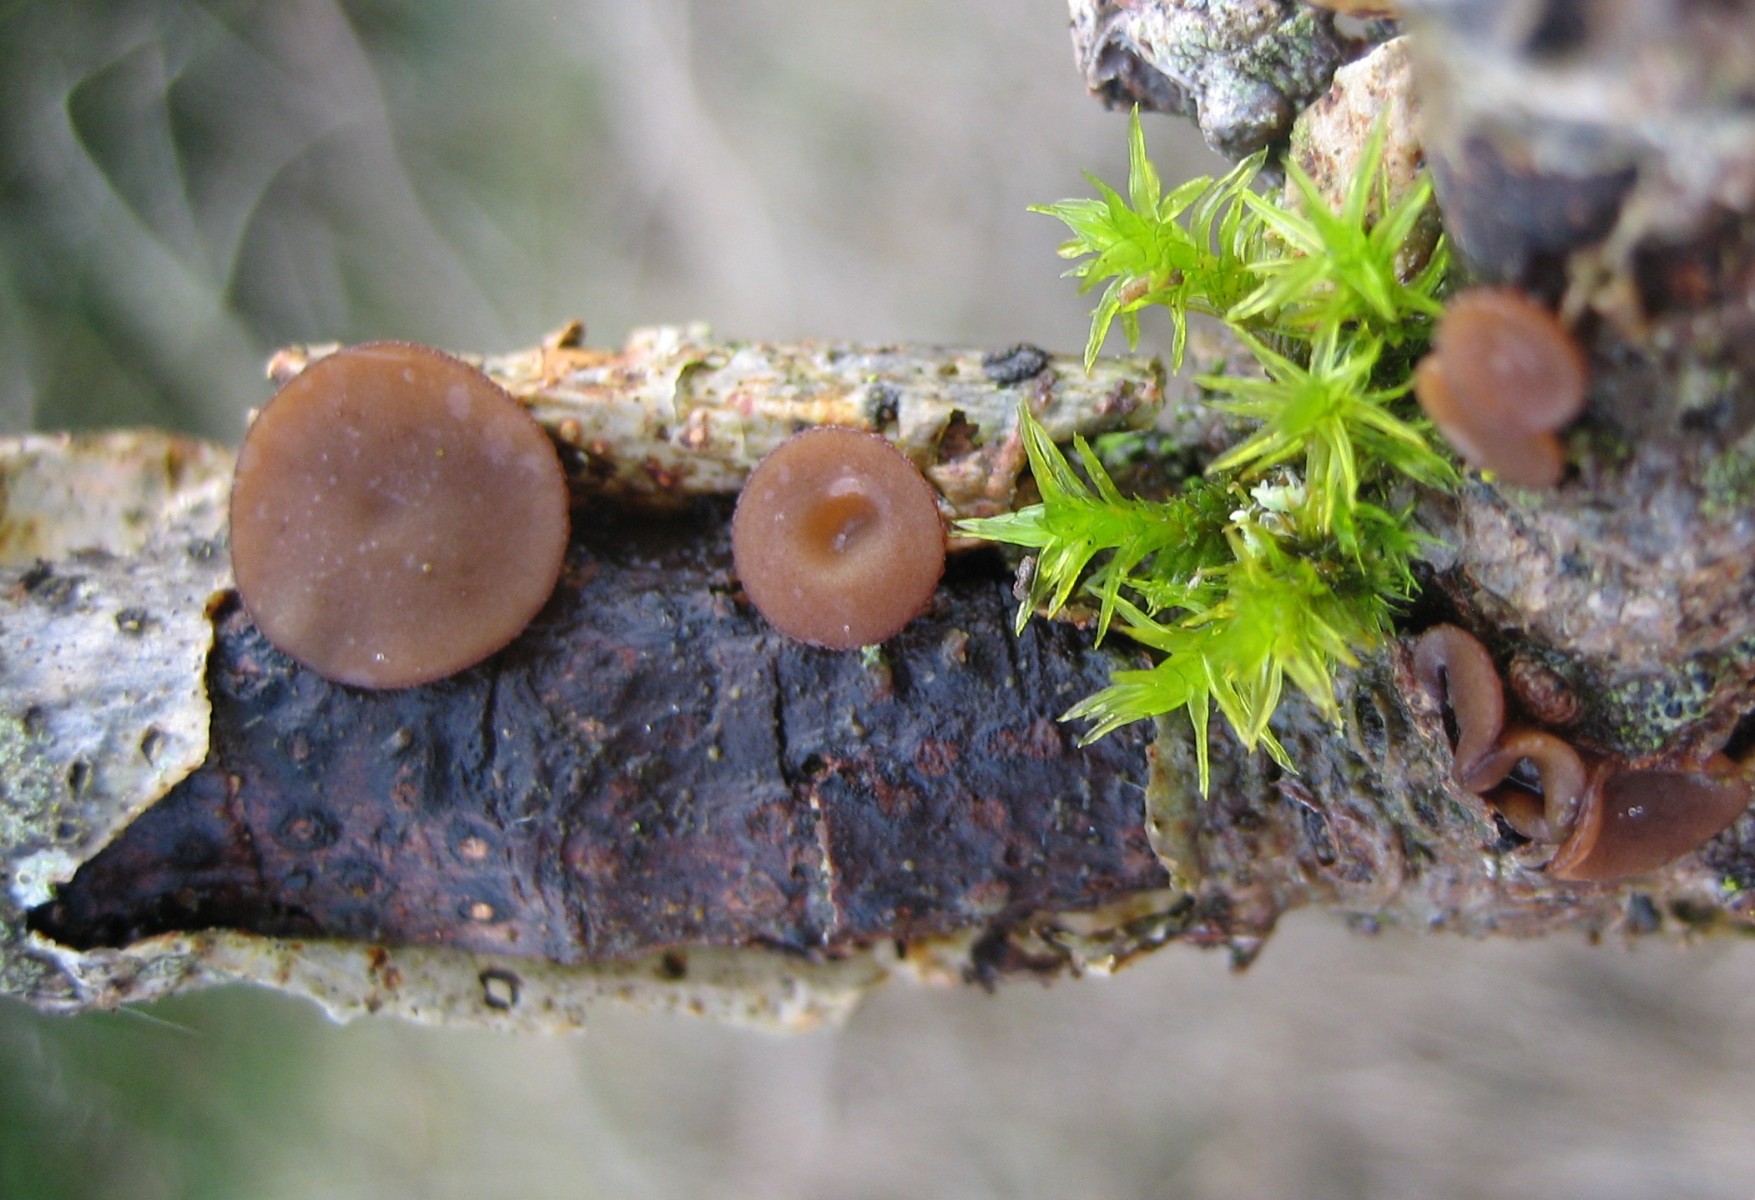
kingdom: Fungi
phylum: Ascomycota
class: Leotiomycetes
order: Helotiales
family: Rutstroemiaceae
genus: Rutstroemia
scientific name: Rutstroemia firma
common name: gren-brunskive
